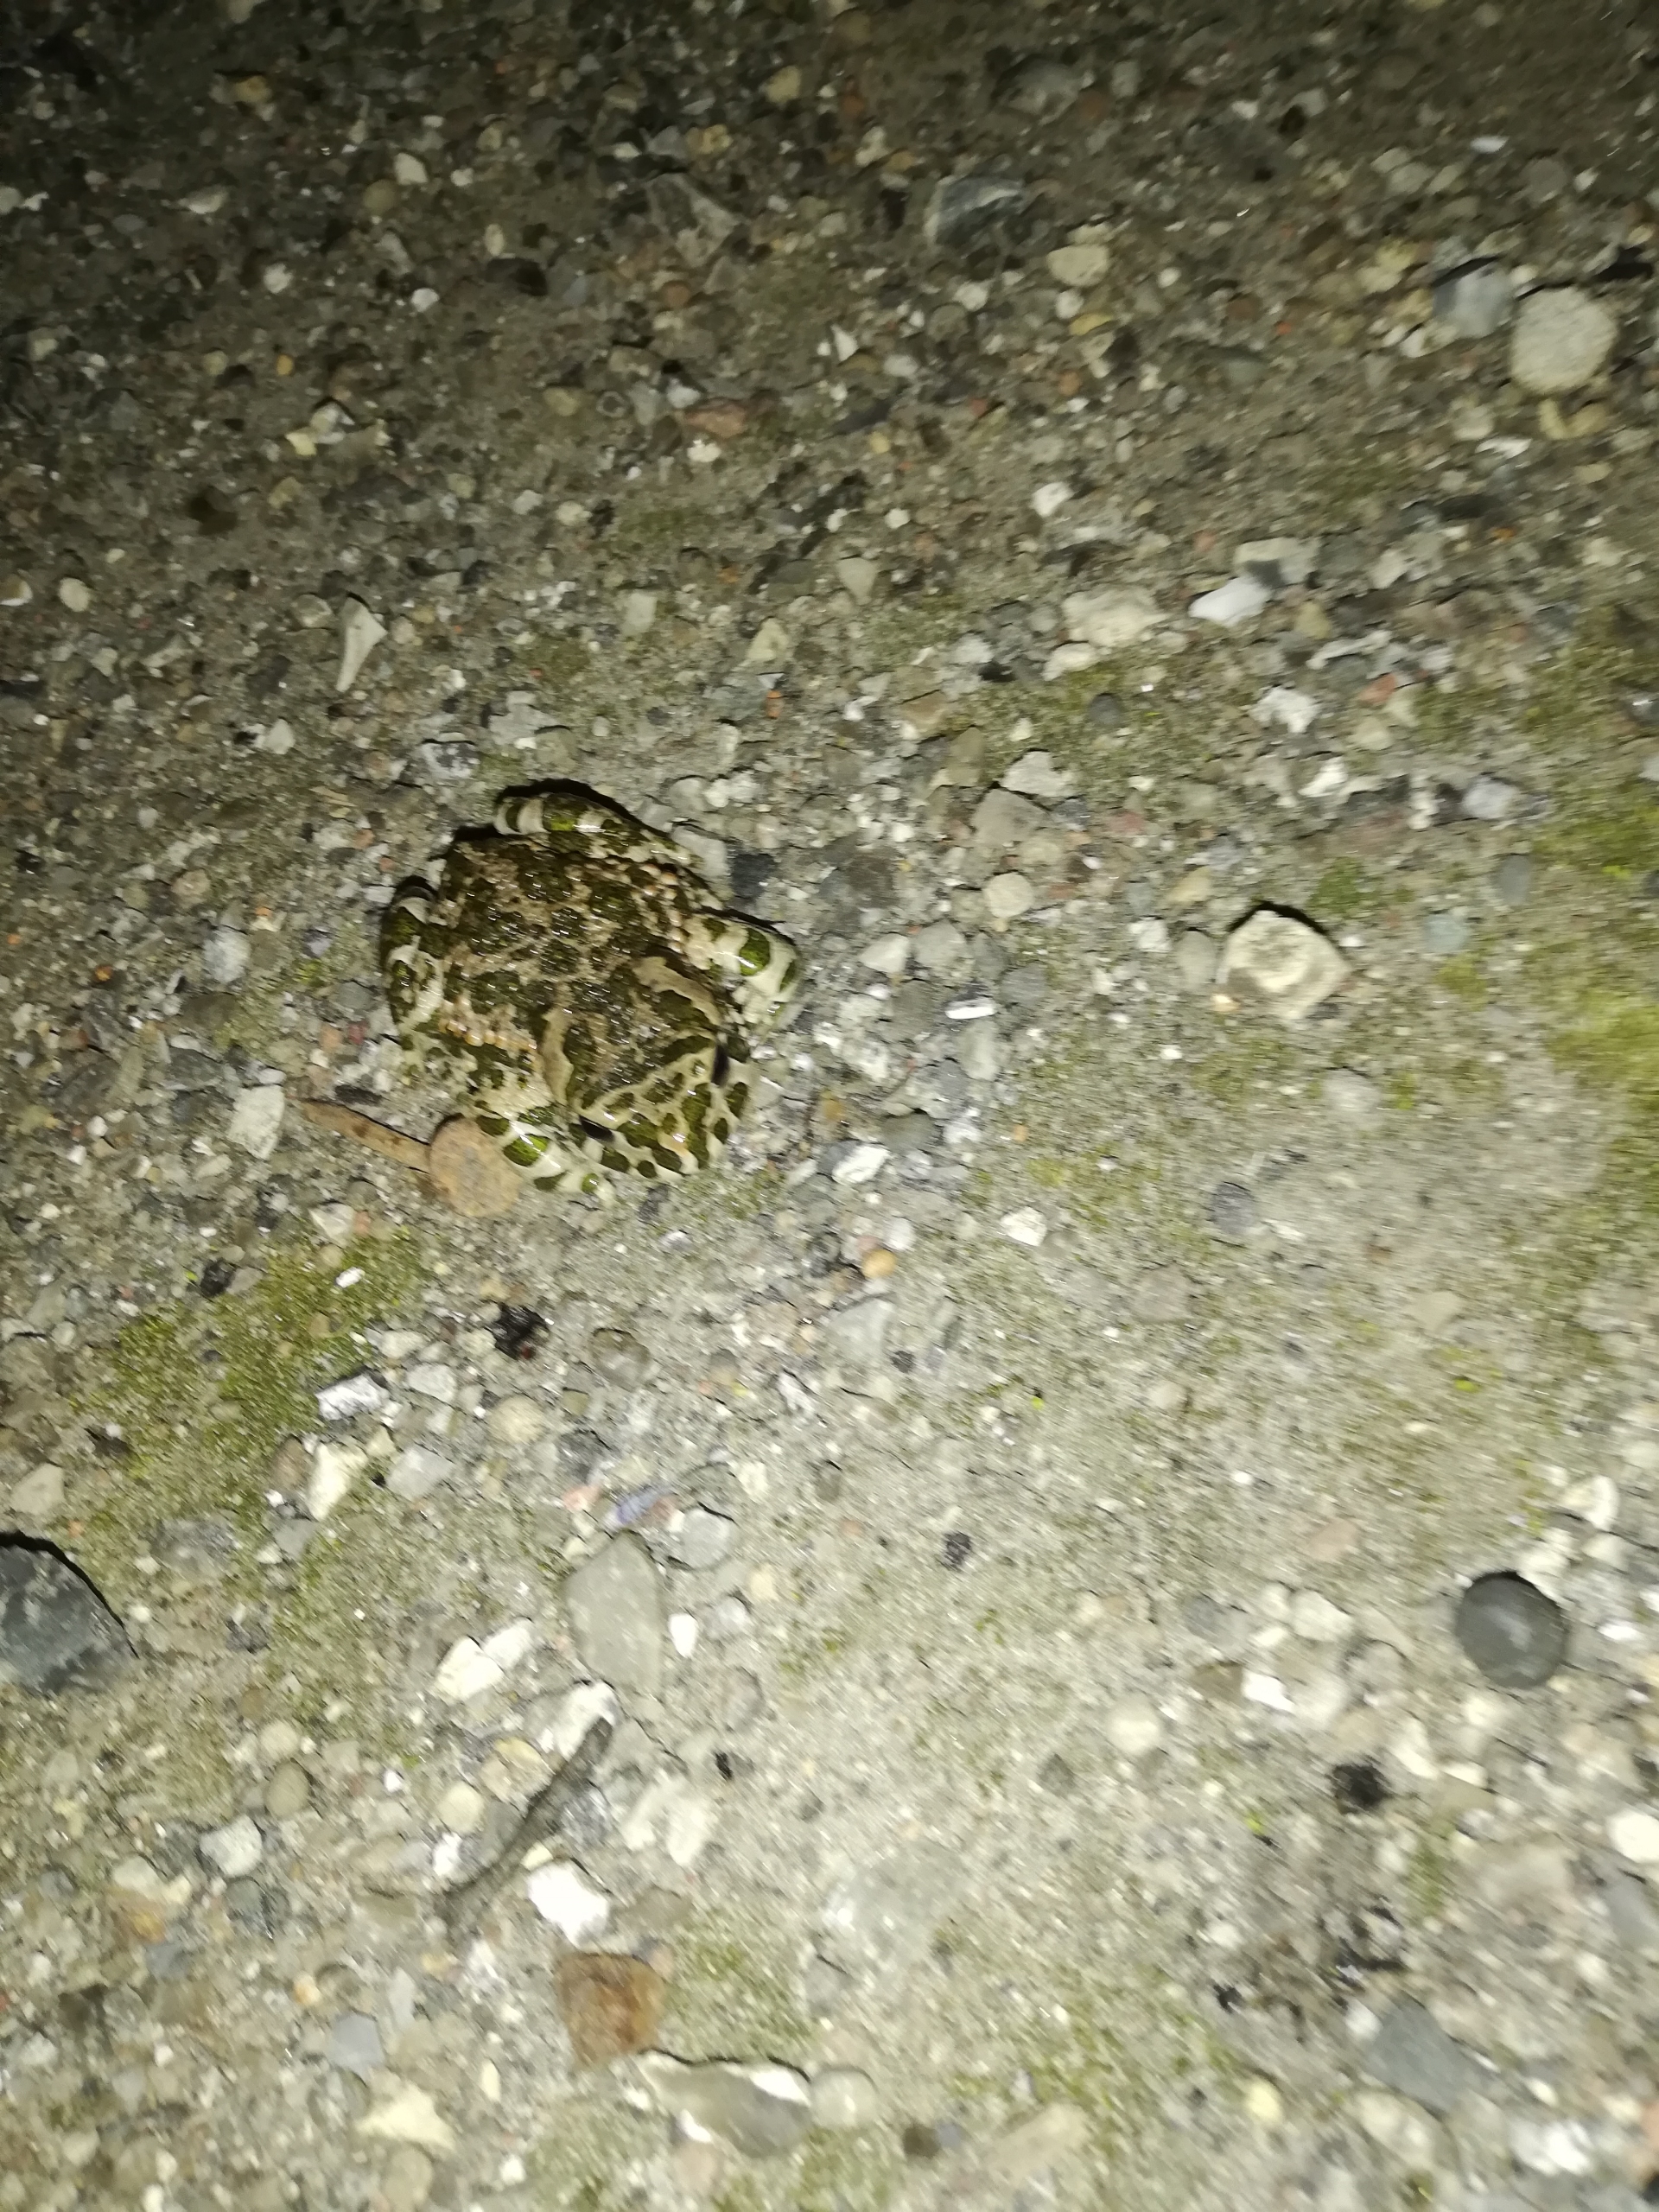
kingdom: Animalia
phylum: Chordata
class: Amphibia
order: Anura
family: Bufonidae
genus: Bufotes
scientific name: Bufotes viridis
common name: Grønbroget tudse
